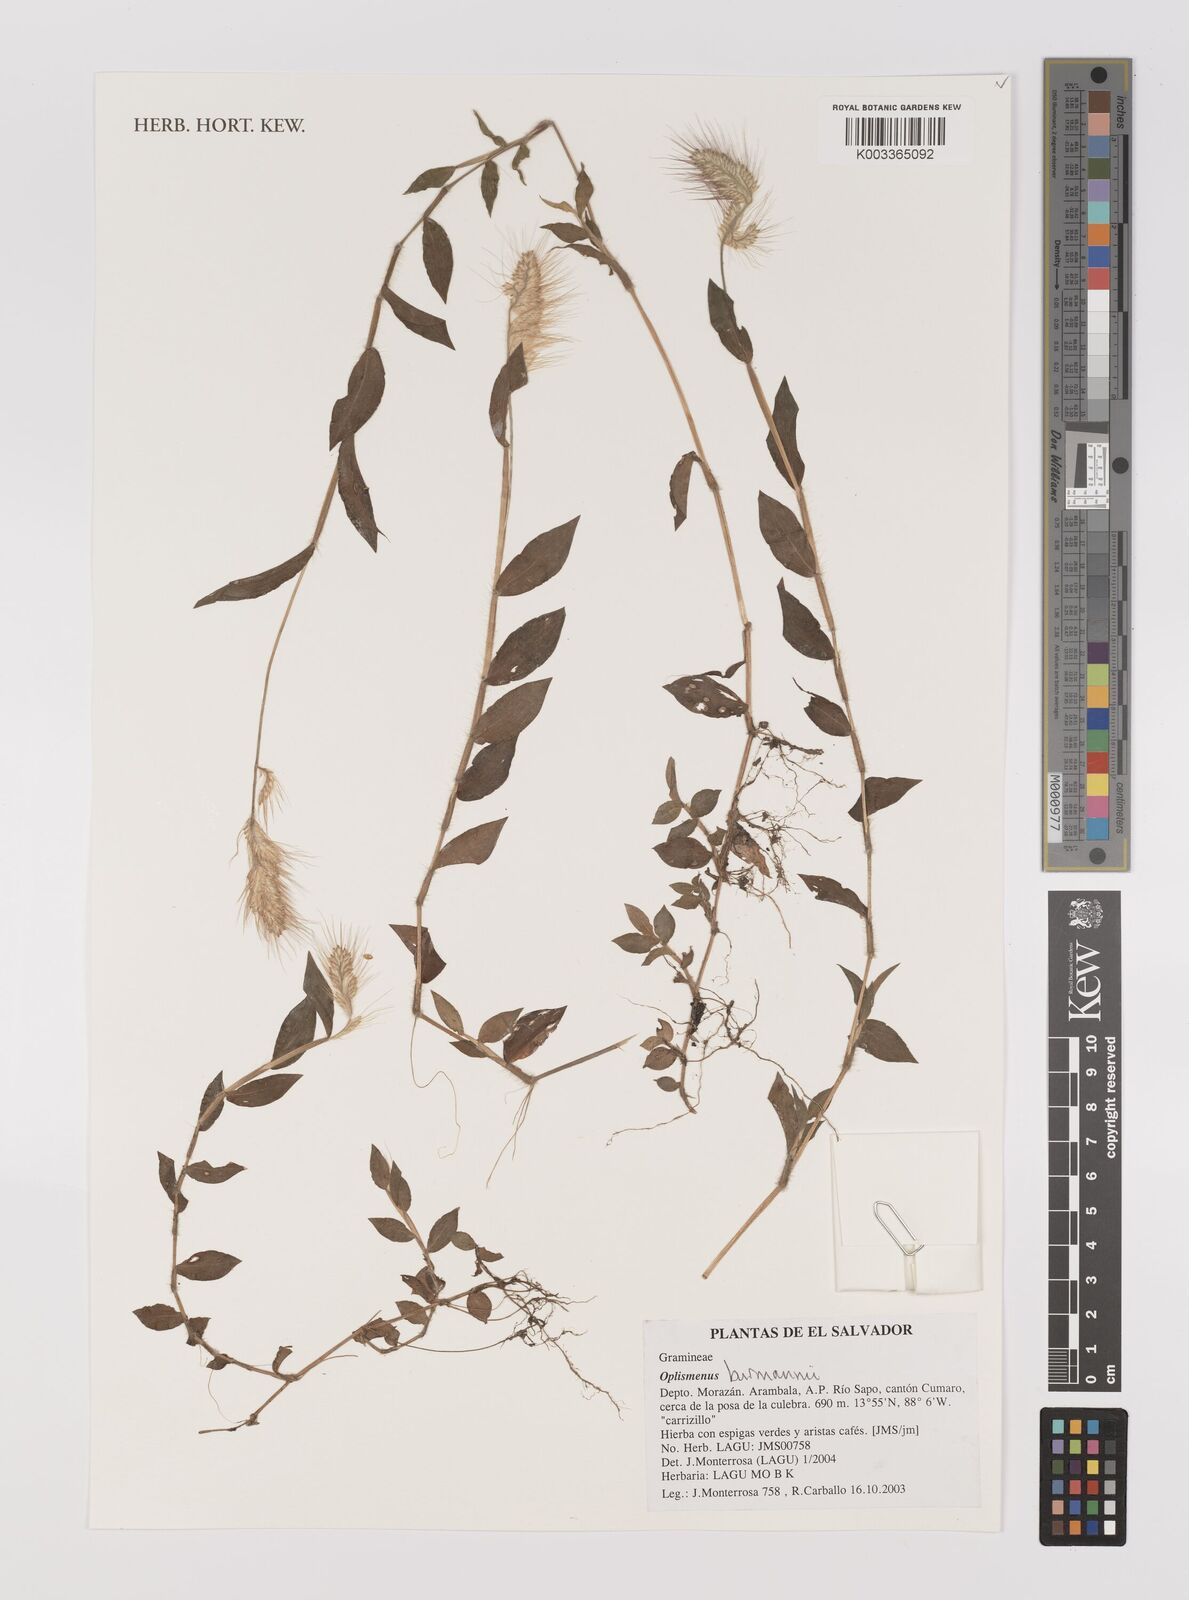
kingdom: Plantae
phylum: Tracheophyta
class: Liliopsida
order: Poales
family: Poaceae
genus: Oplismenus
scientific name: Oplismenus burmanni
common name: Burmann's basketgrass
